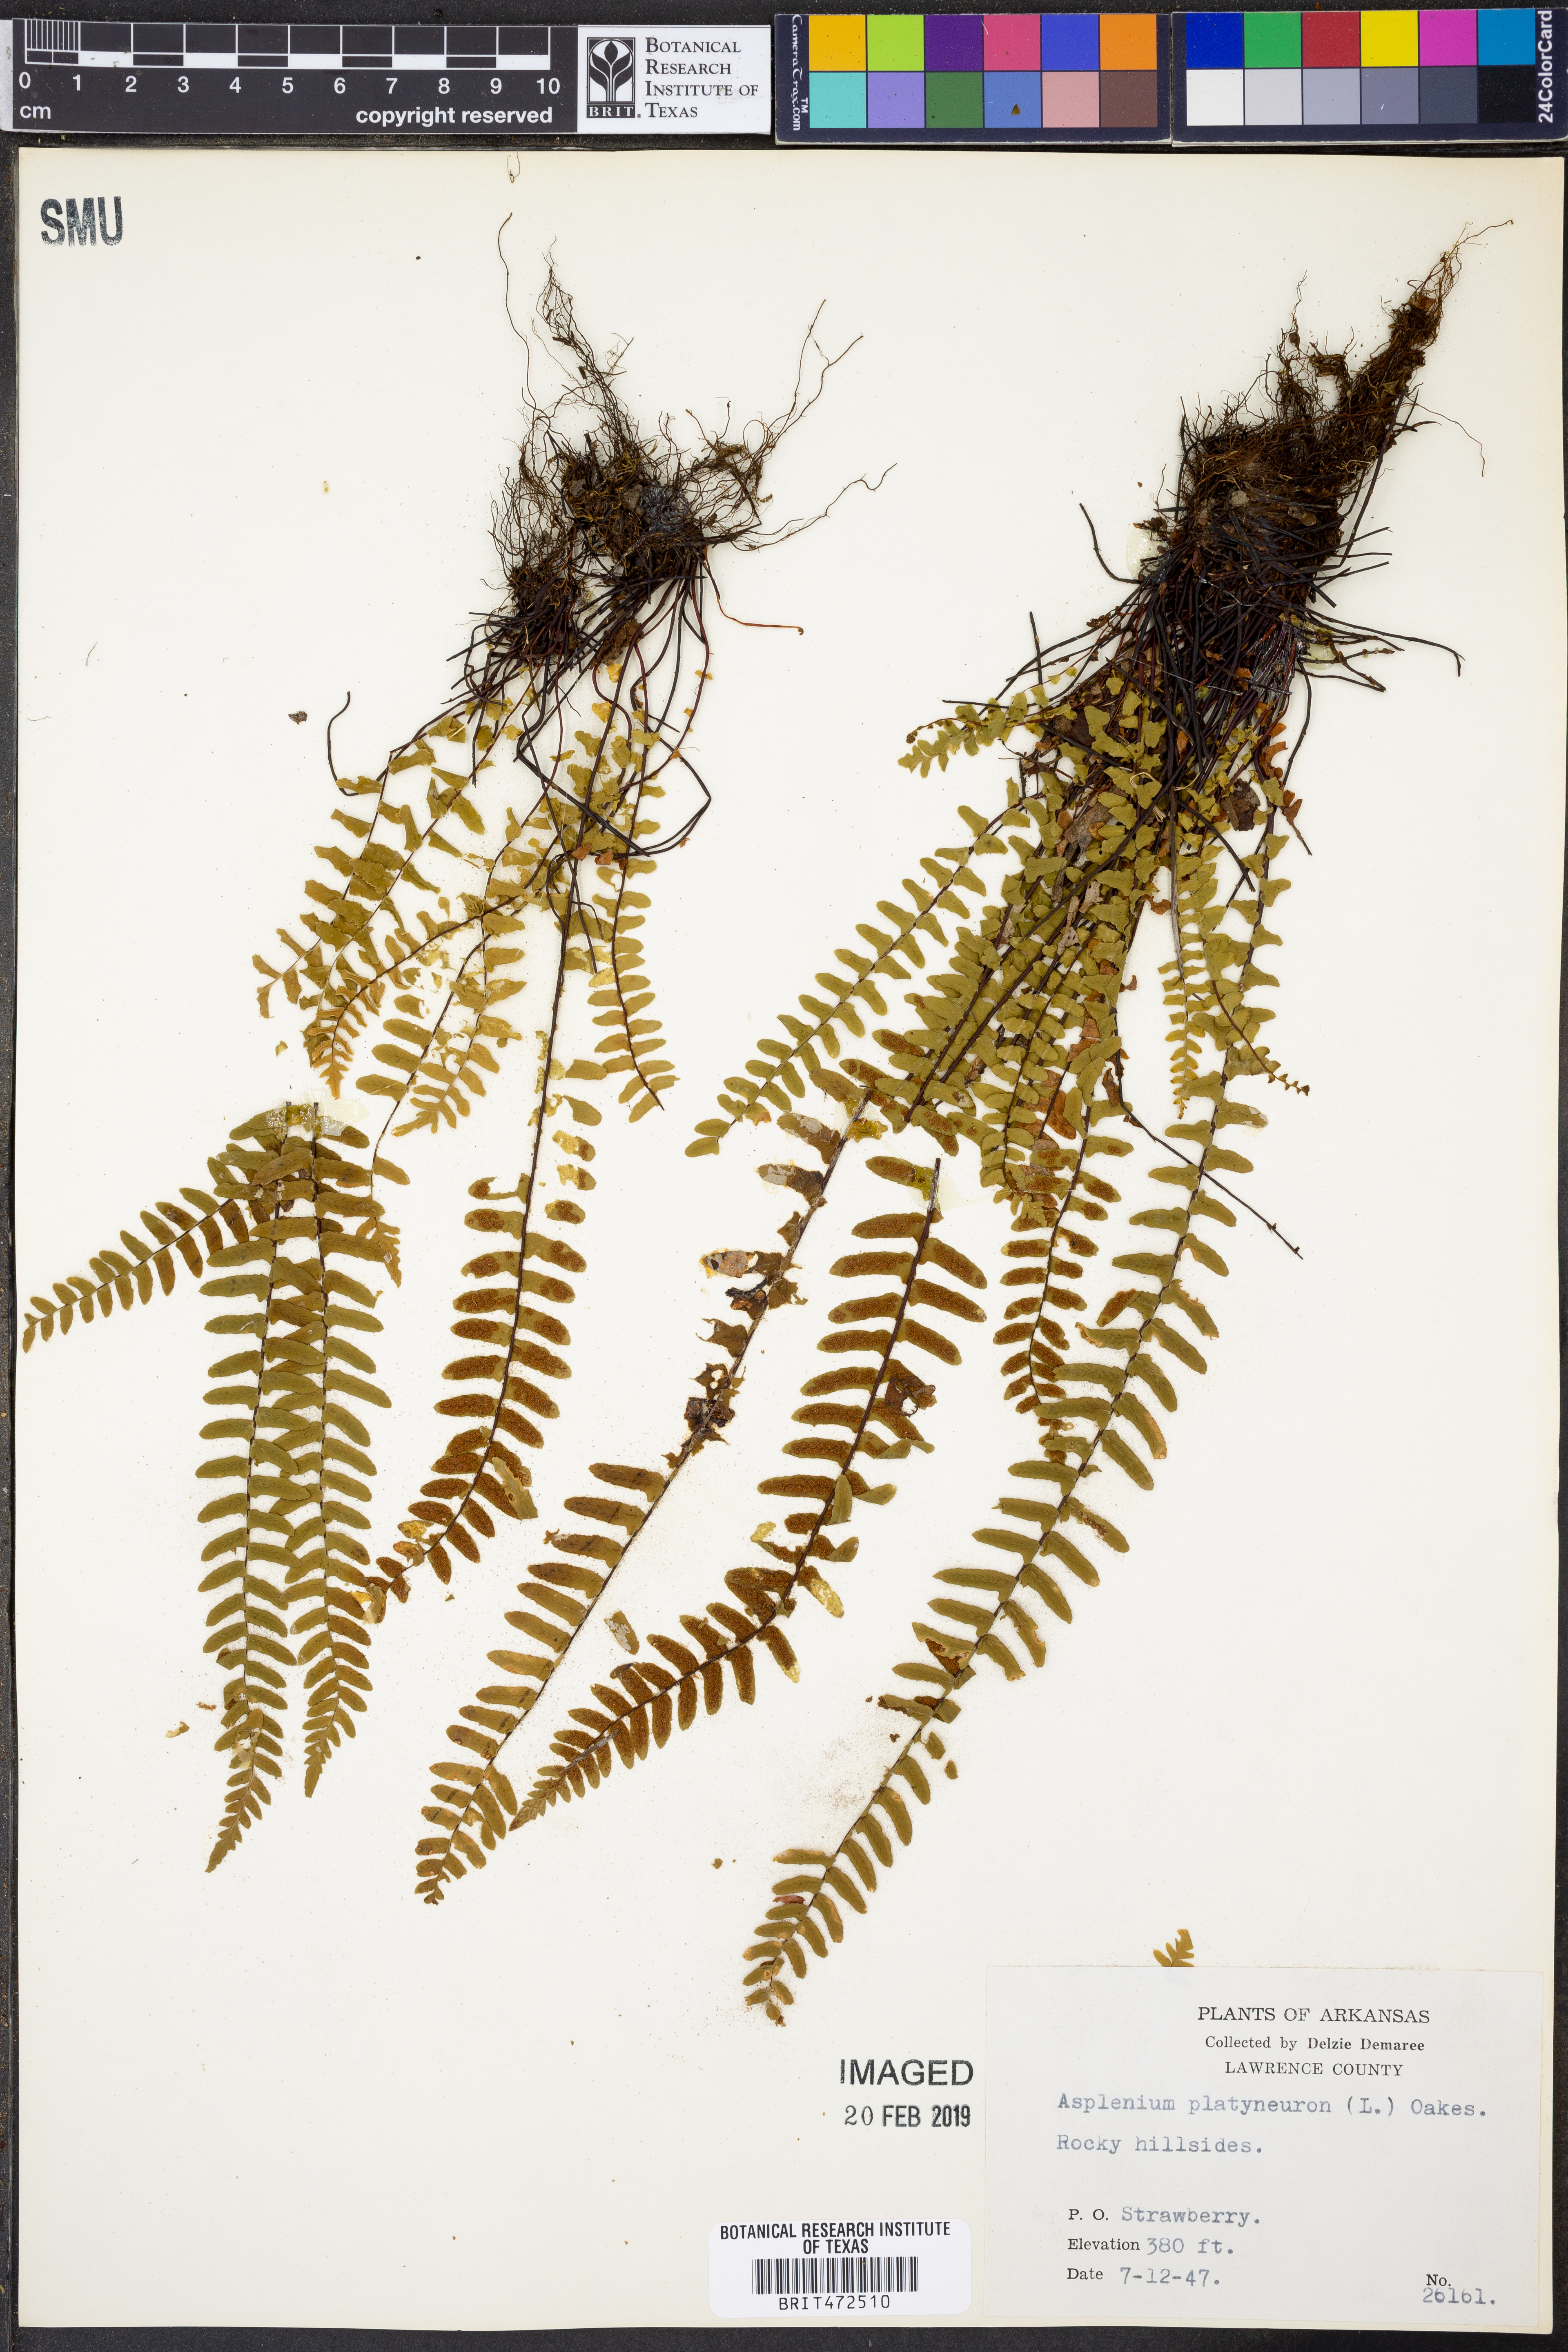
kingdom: Plantae
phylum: Tracheophyta
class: Polypodiopsida
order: Polypodiales
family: Aspleniaceae
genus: Asplenium
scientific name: Asplenium platyneuron
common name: Ebony spleenwort
